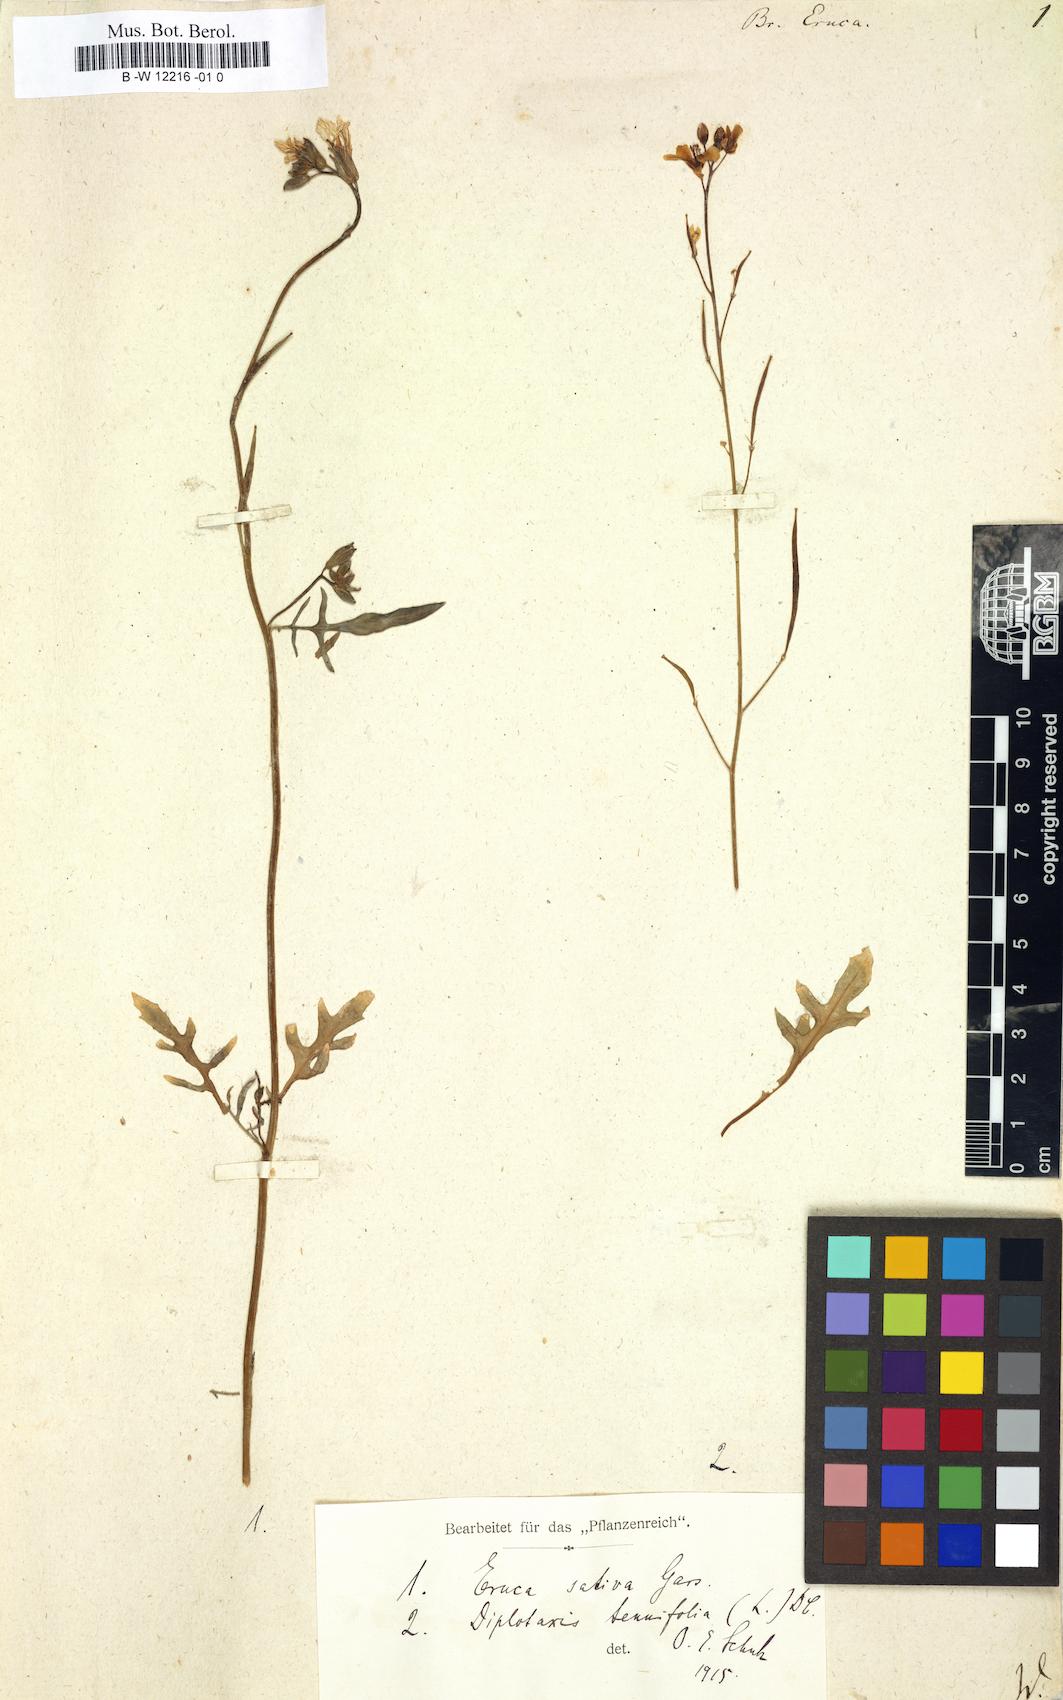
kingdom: Plantae
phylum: Tracheophyta
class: Magnoliopsida
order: Brassicales
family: Brassicaceae
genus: Brassica
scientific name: Brassica eruca
